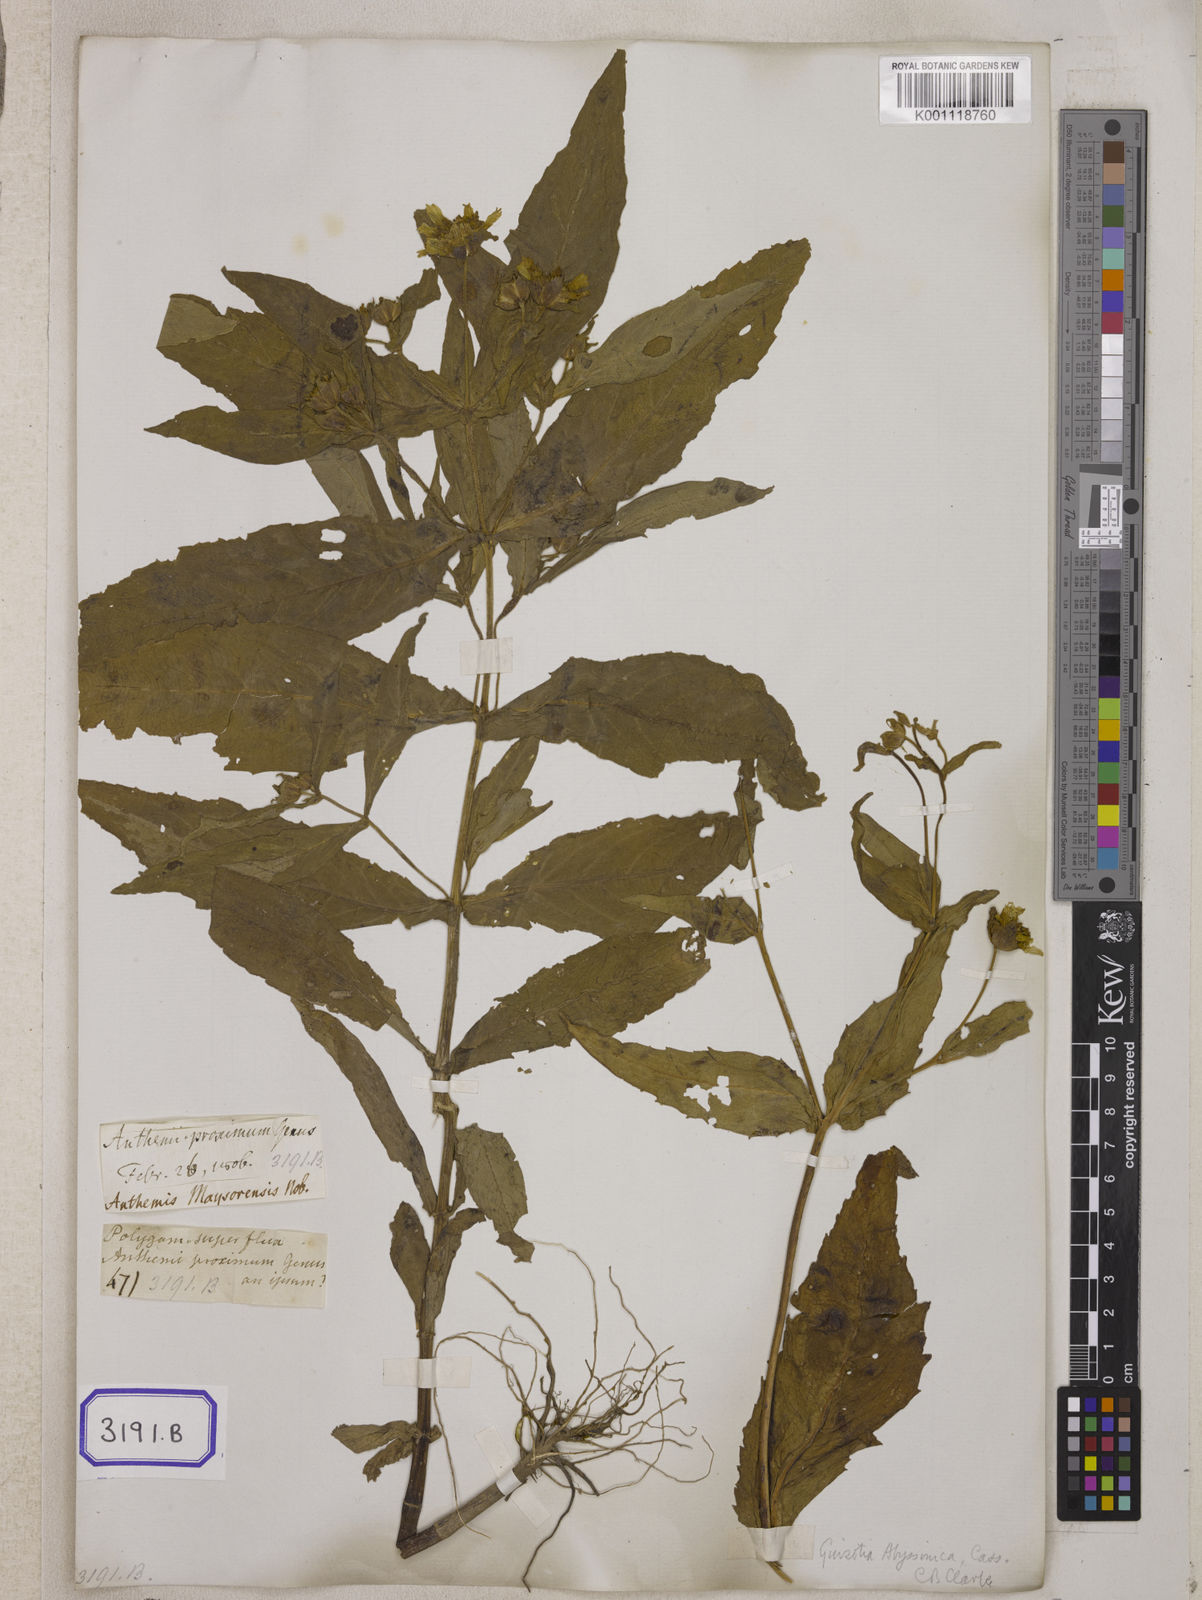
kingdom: Plantae
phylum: Tracheophyta
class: Magnoliopsida
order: Asterales
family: Asteraceae
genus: Guizotia
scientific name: Guizotia abyssinica
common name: Niger
